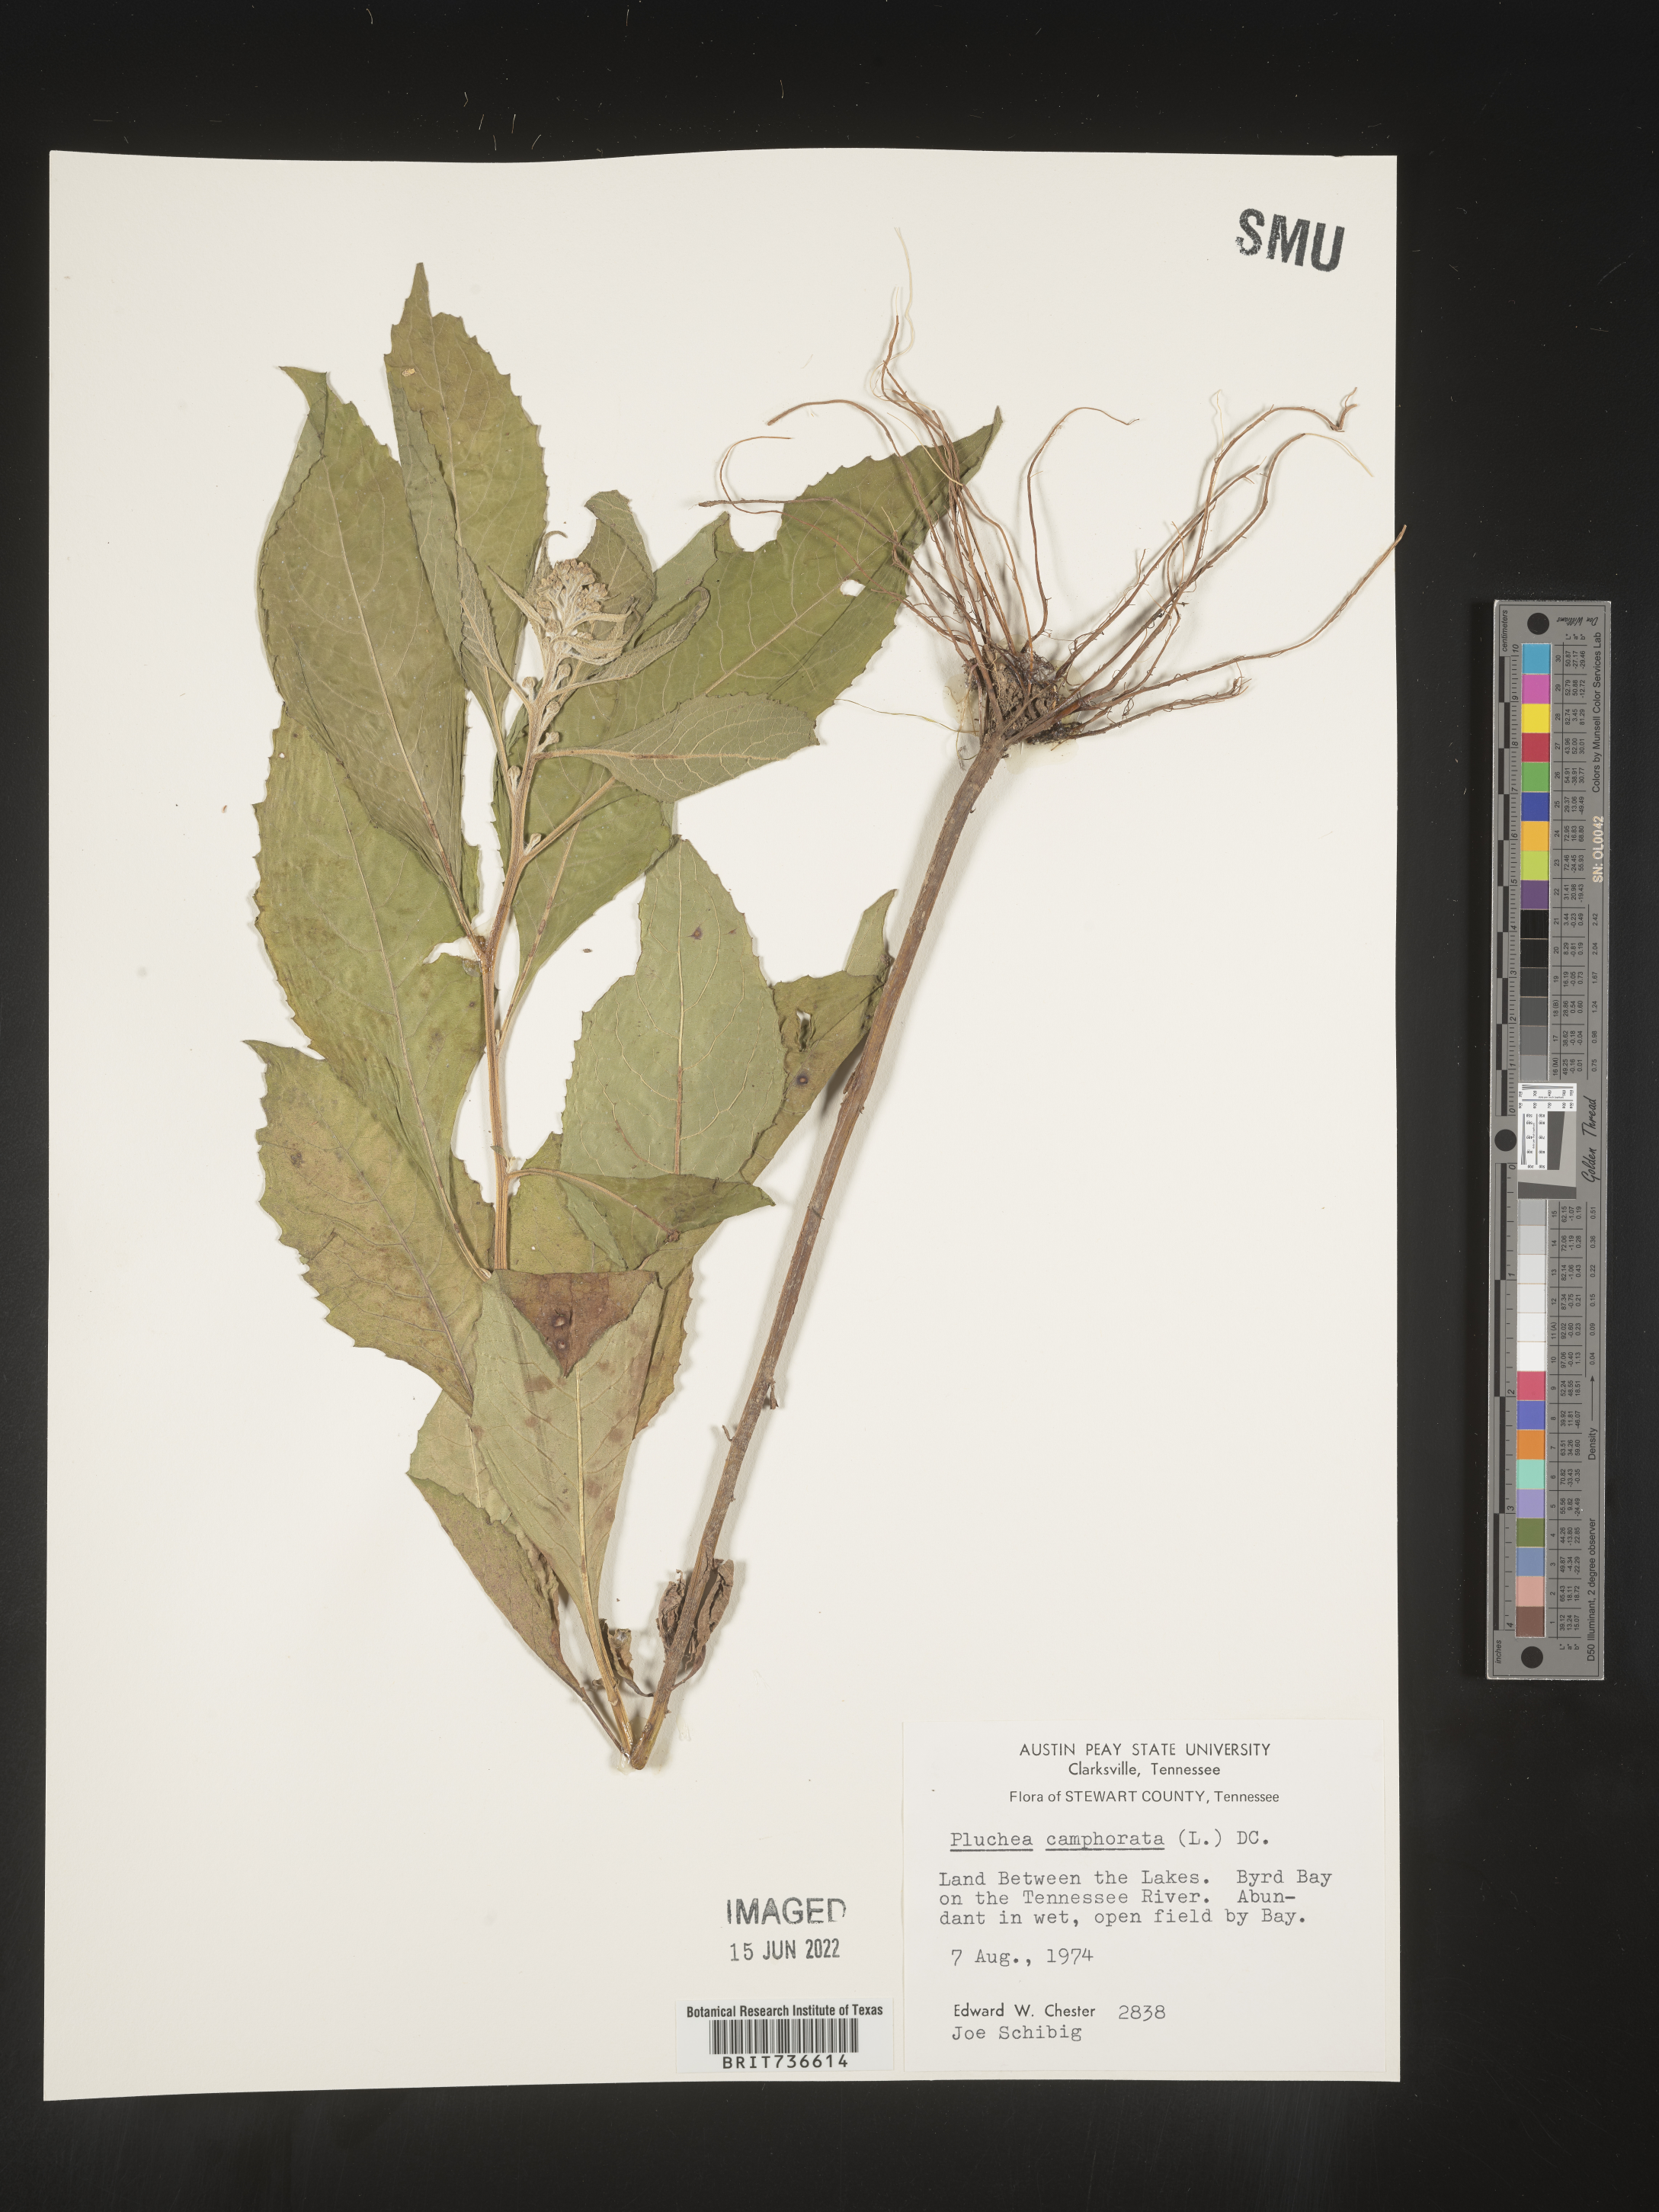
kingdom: Plantae
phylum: Tracheophyta
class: Magnoliopsida
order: Asterales
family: Asteraceae
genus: Pluchea
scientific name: Pluchea camphorata
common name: Camphor pluchea
